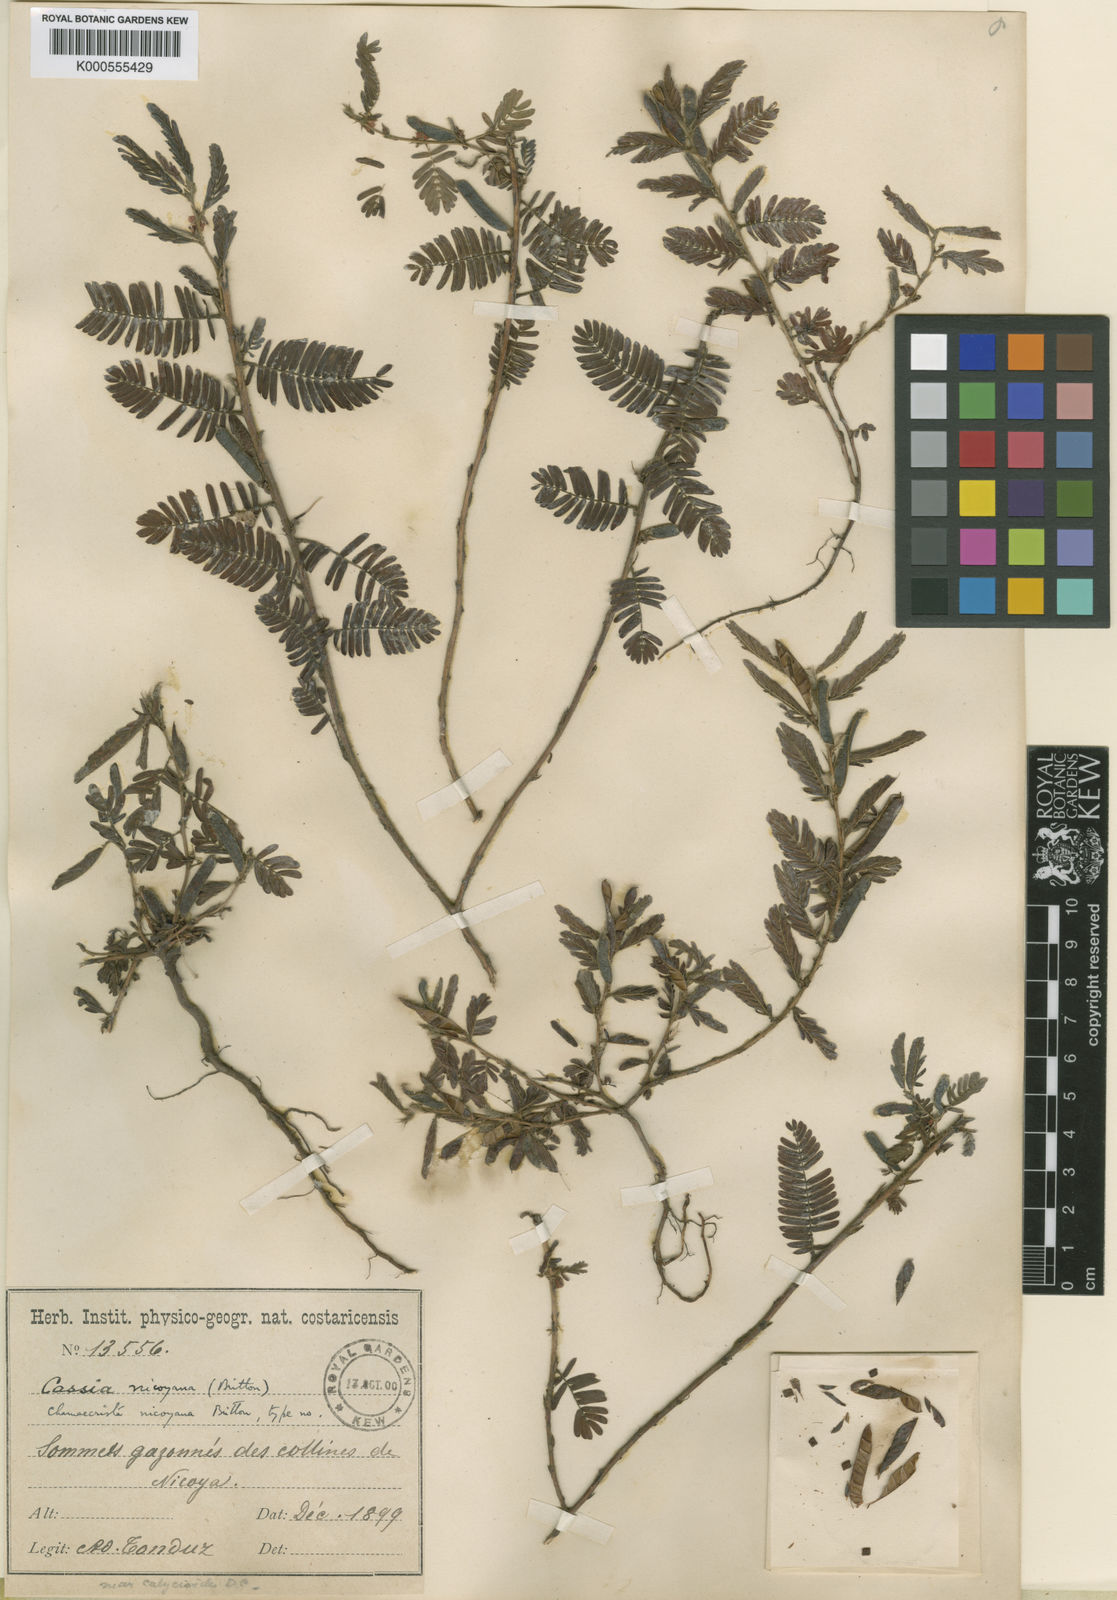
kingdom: Plantae
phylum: Tracheophyta
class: Magnoliopsida
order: Fabales
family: Fabaceae
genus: Chamaecrista
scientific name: Chamaecrista nictitans
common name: Sensitive cassia
